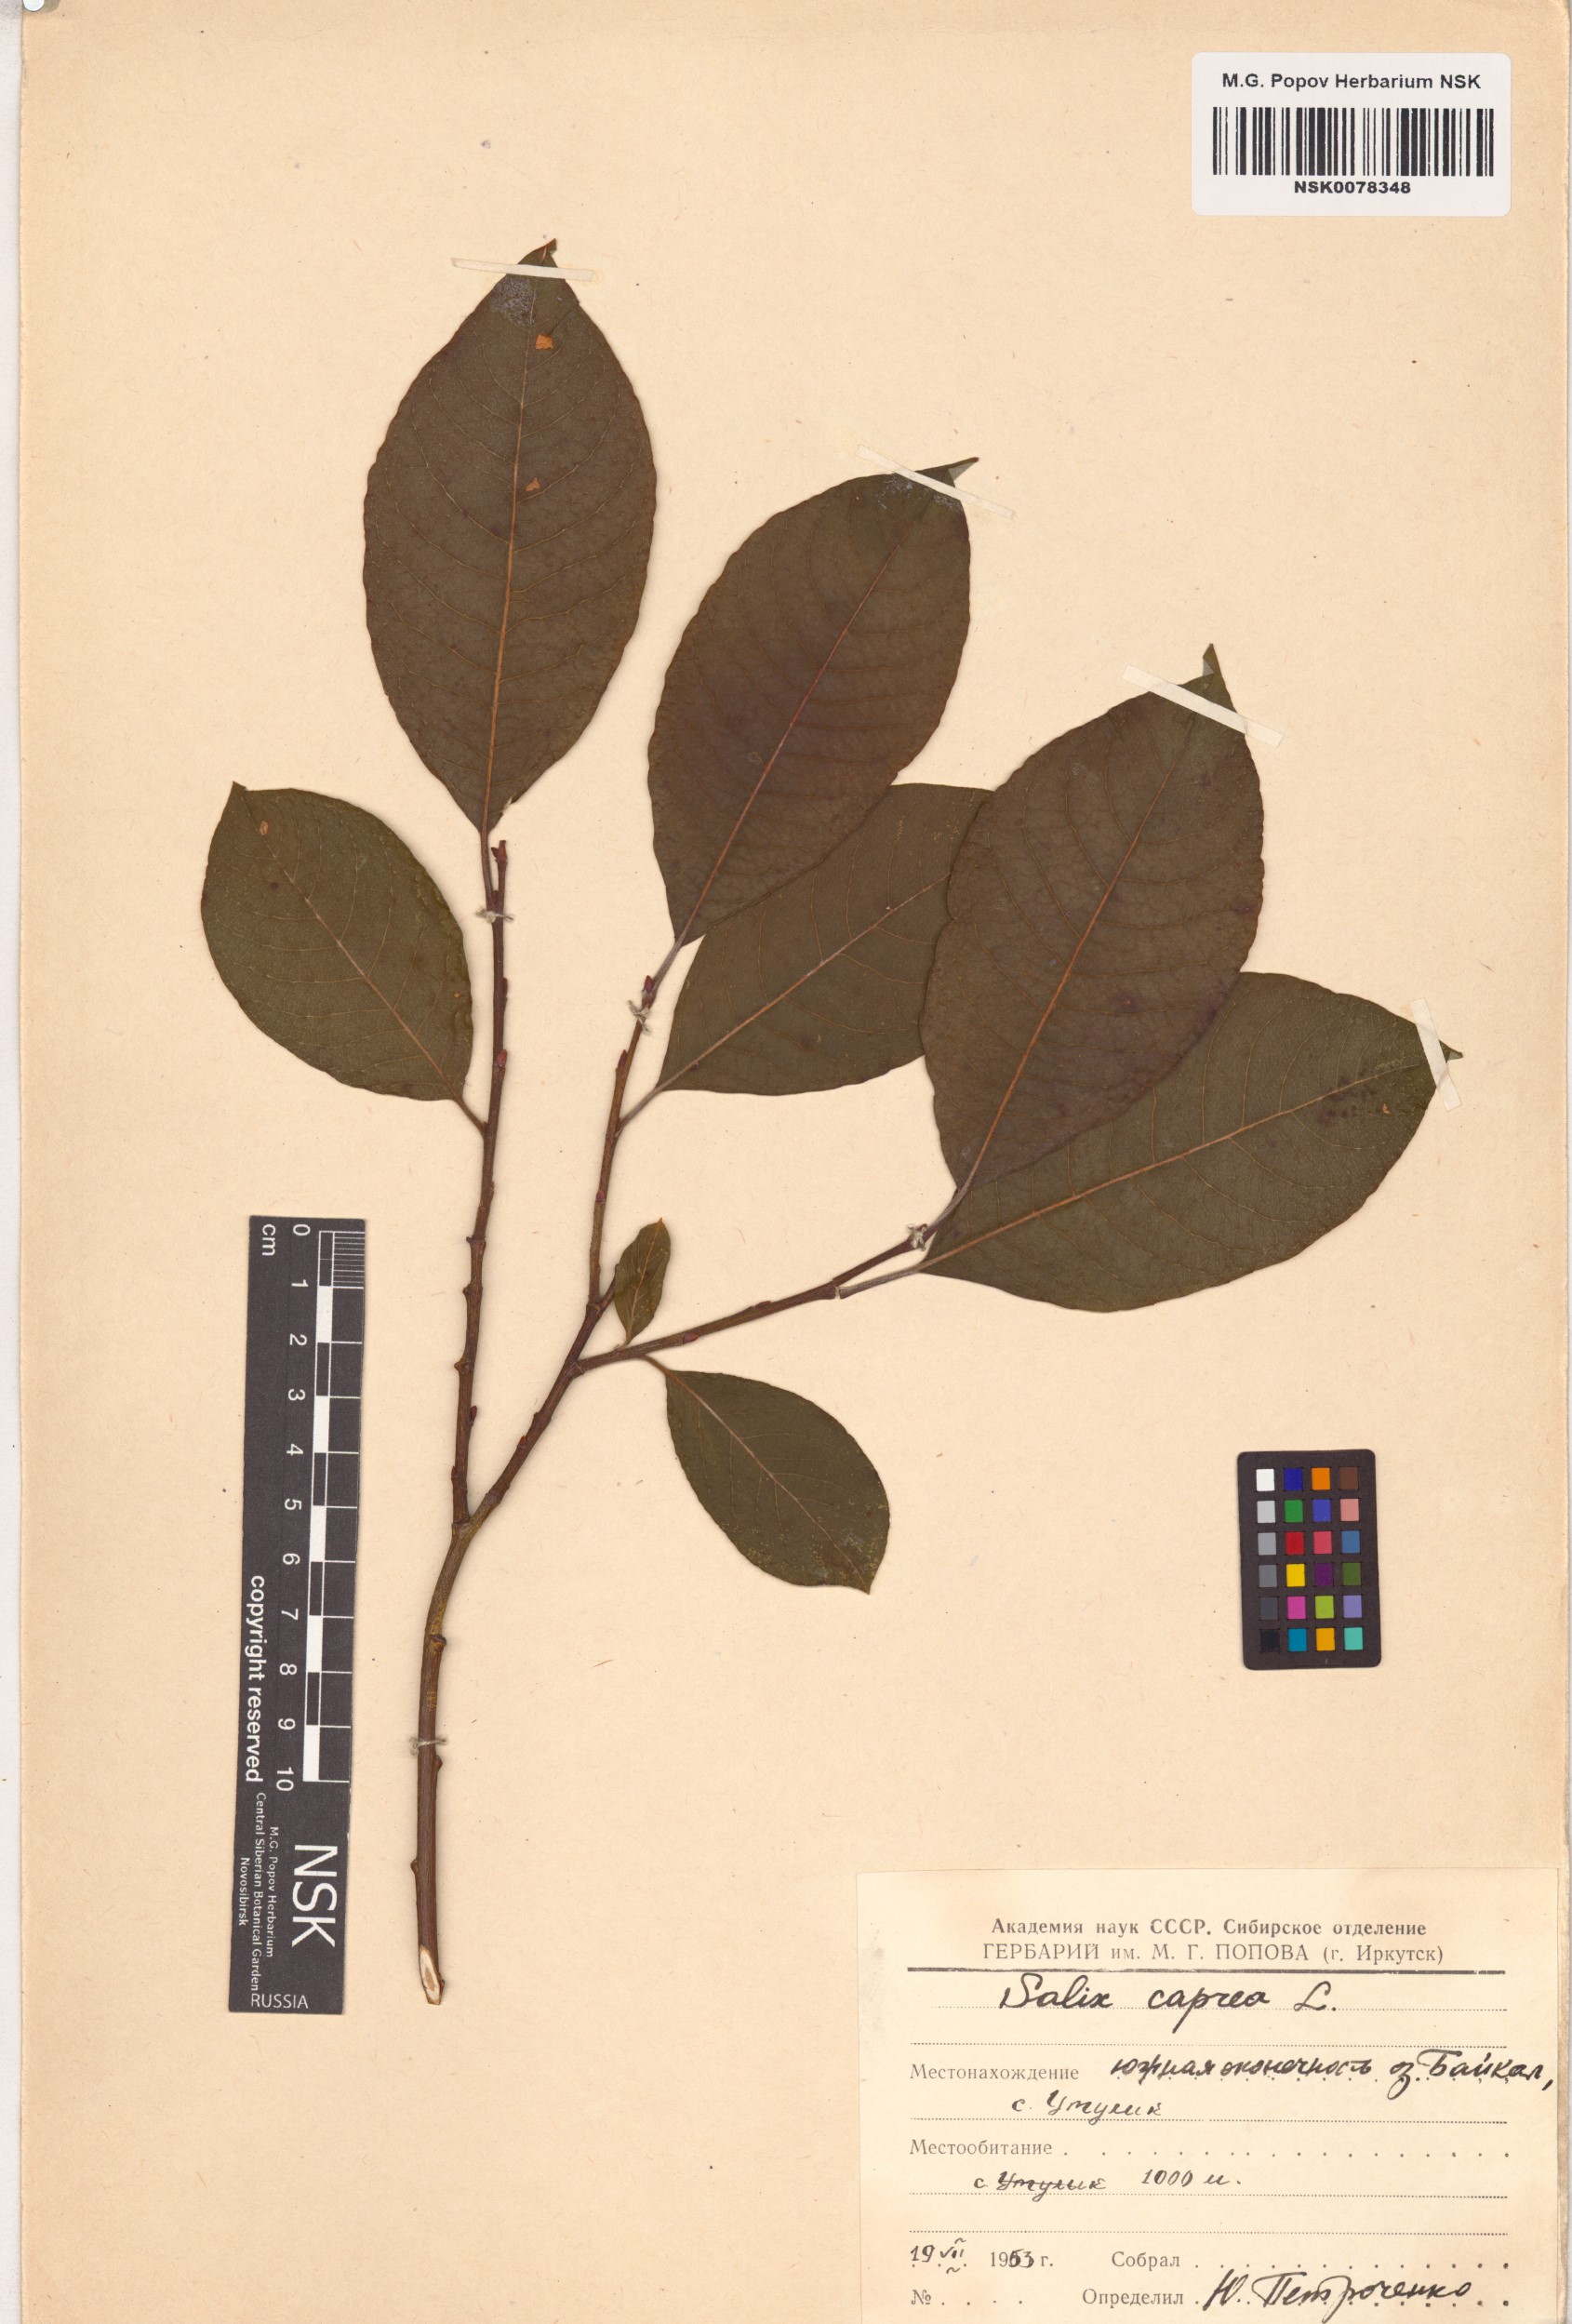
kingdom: Plantae
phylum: Tracheophyta
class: Magnoliopsida
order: Malpighiales
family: Salicaceae
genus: Salix
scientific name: Salix caprea
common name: Goat willow
